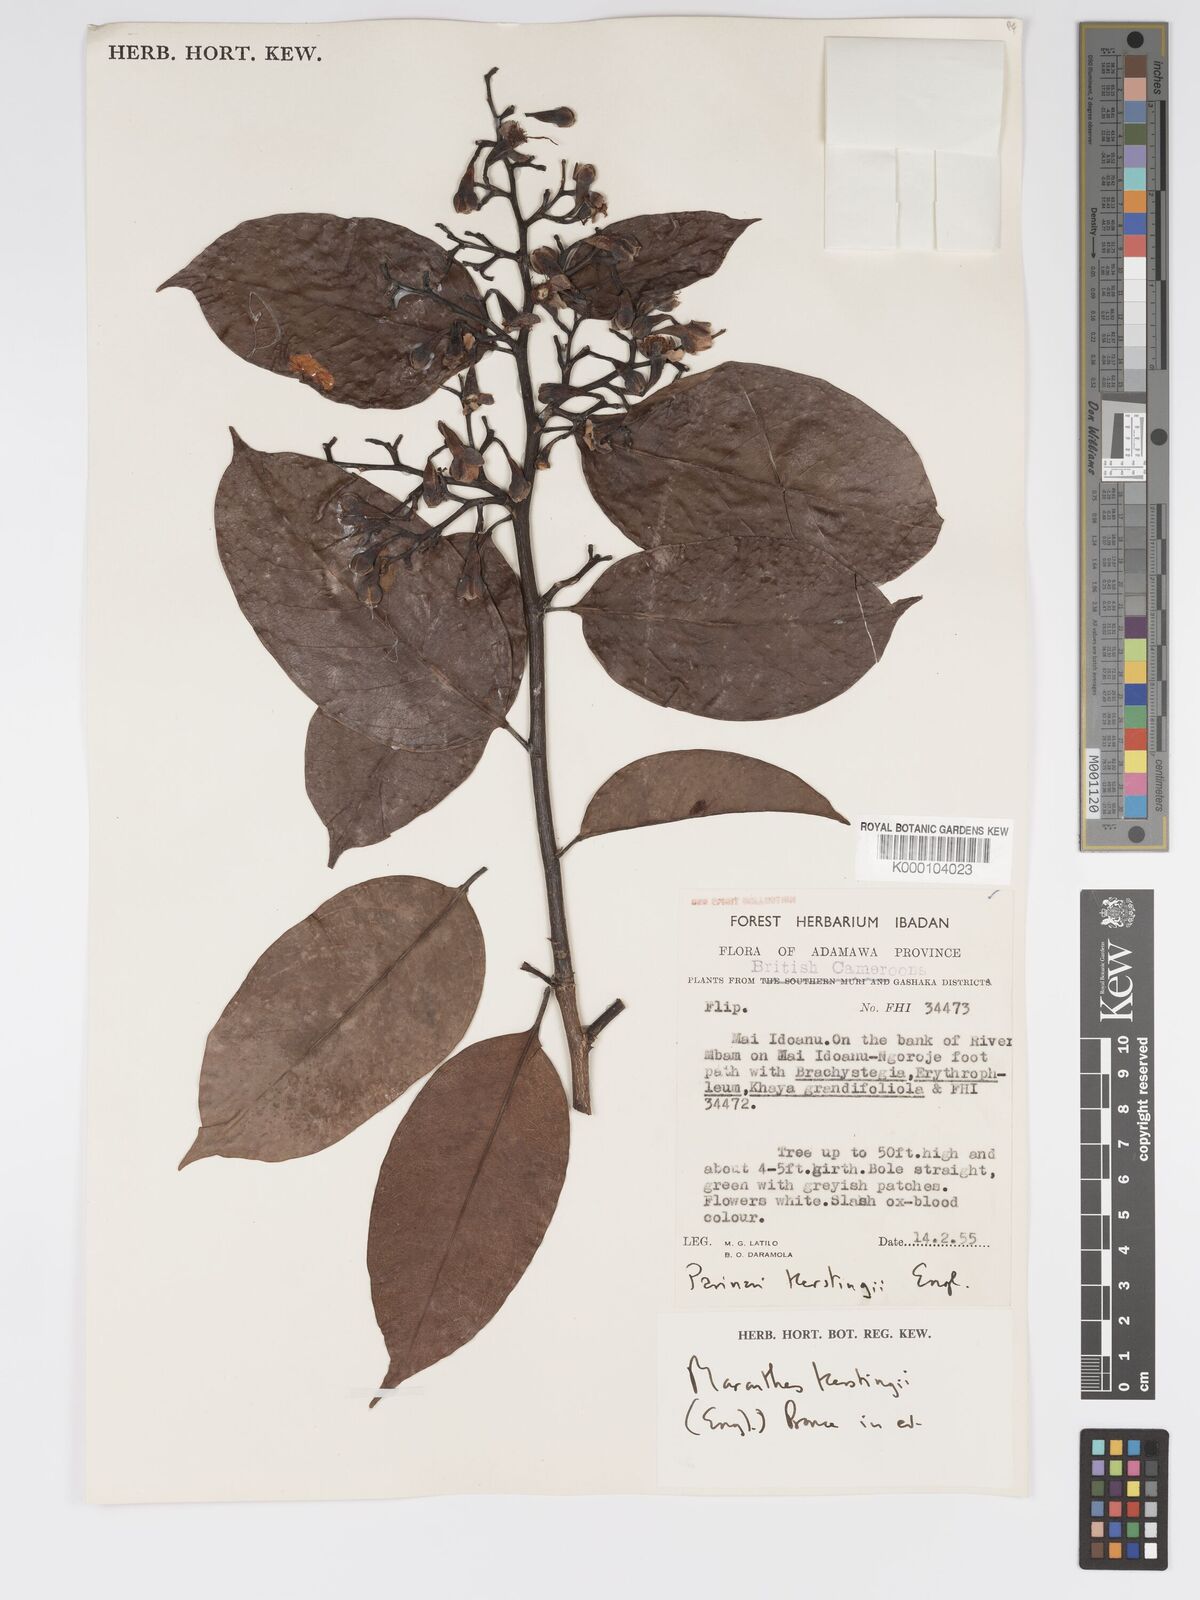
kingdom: Plantae
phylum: Tracheophyta
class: Magnoliopsida
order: Malpighiales
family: Chrysobalanaceae
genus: Maranthes
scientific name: Maranthes
